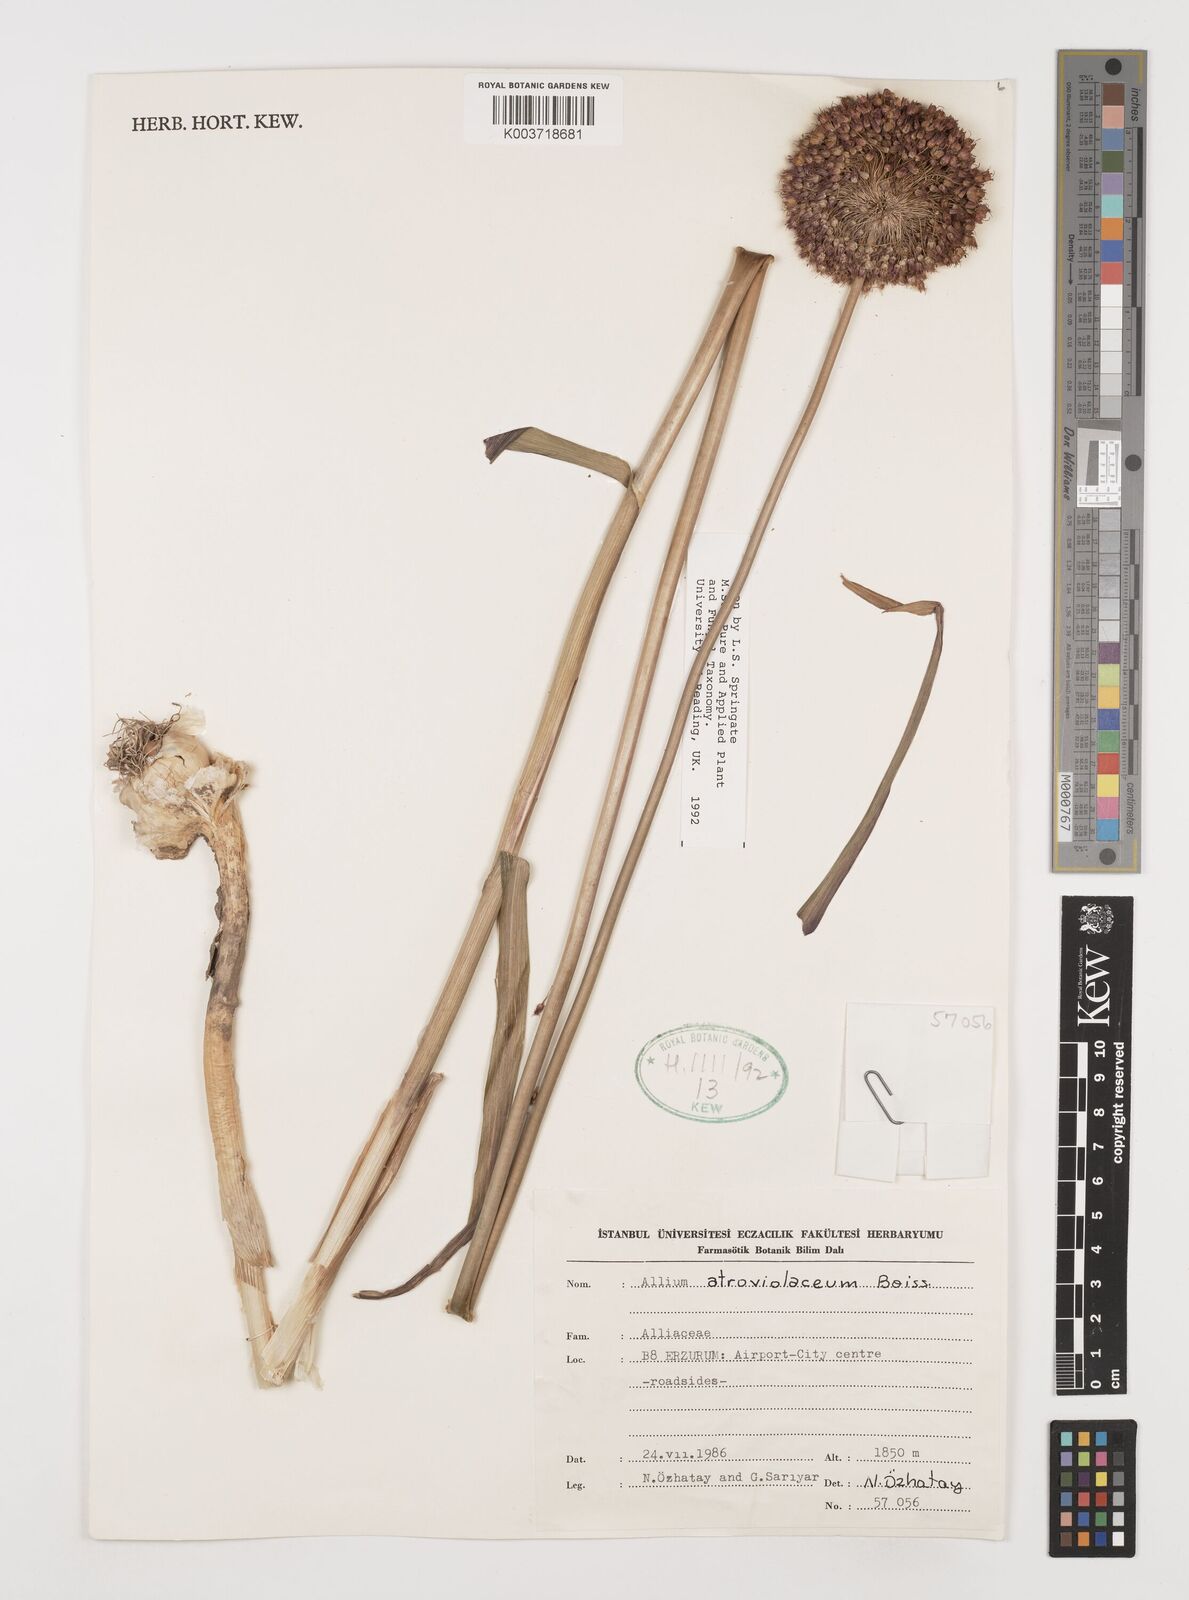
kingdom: Plantae
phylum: Tracheophyta
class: Liliopsida
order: Asparagales
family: Amaryllidaceae
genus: Allium
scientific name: Allium atroviolaceum
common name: Broadleaf wild leek
